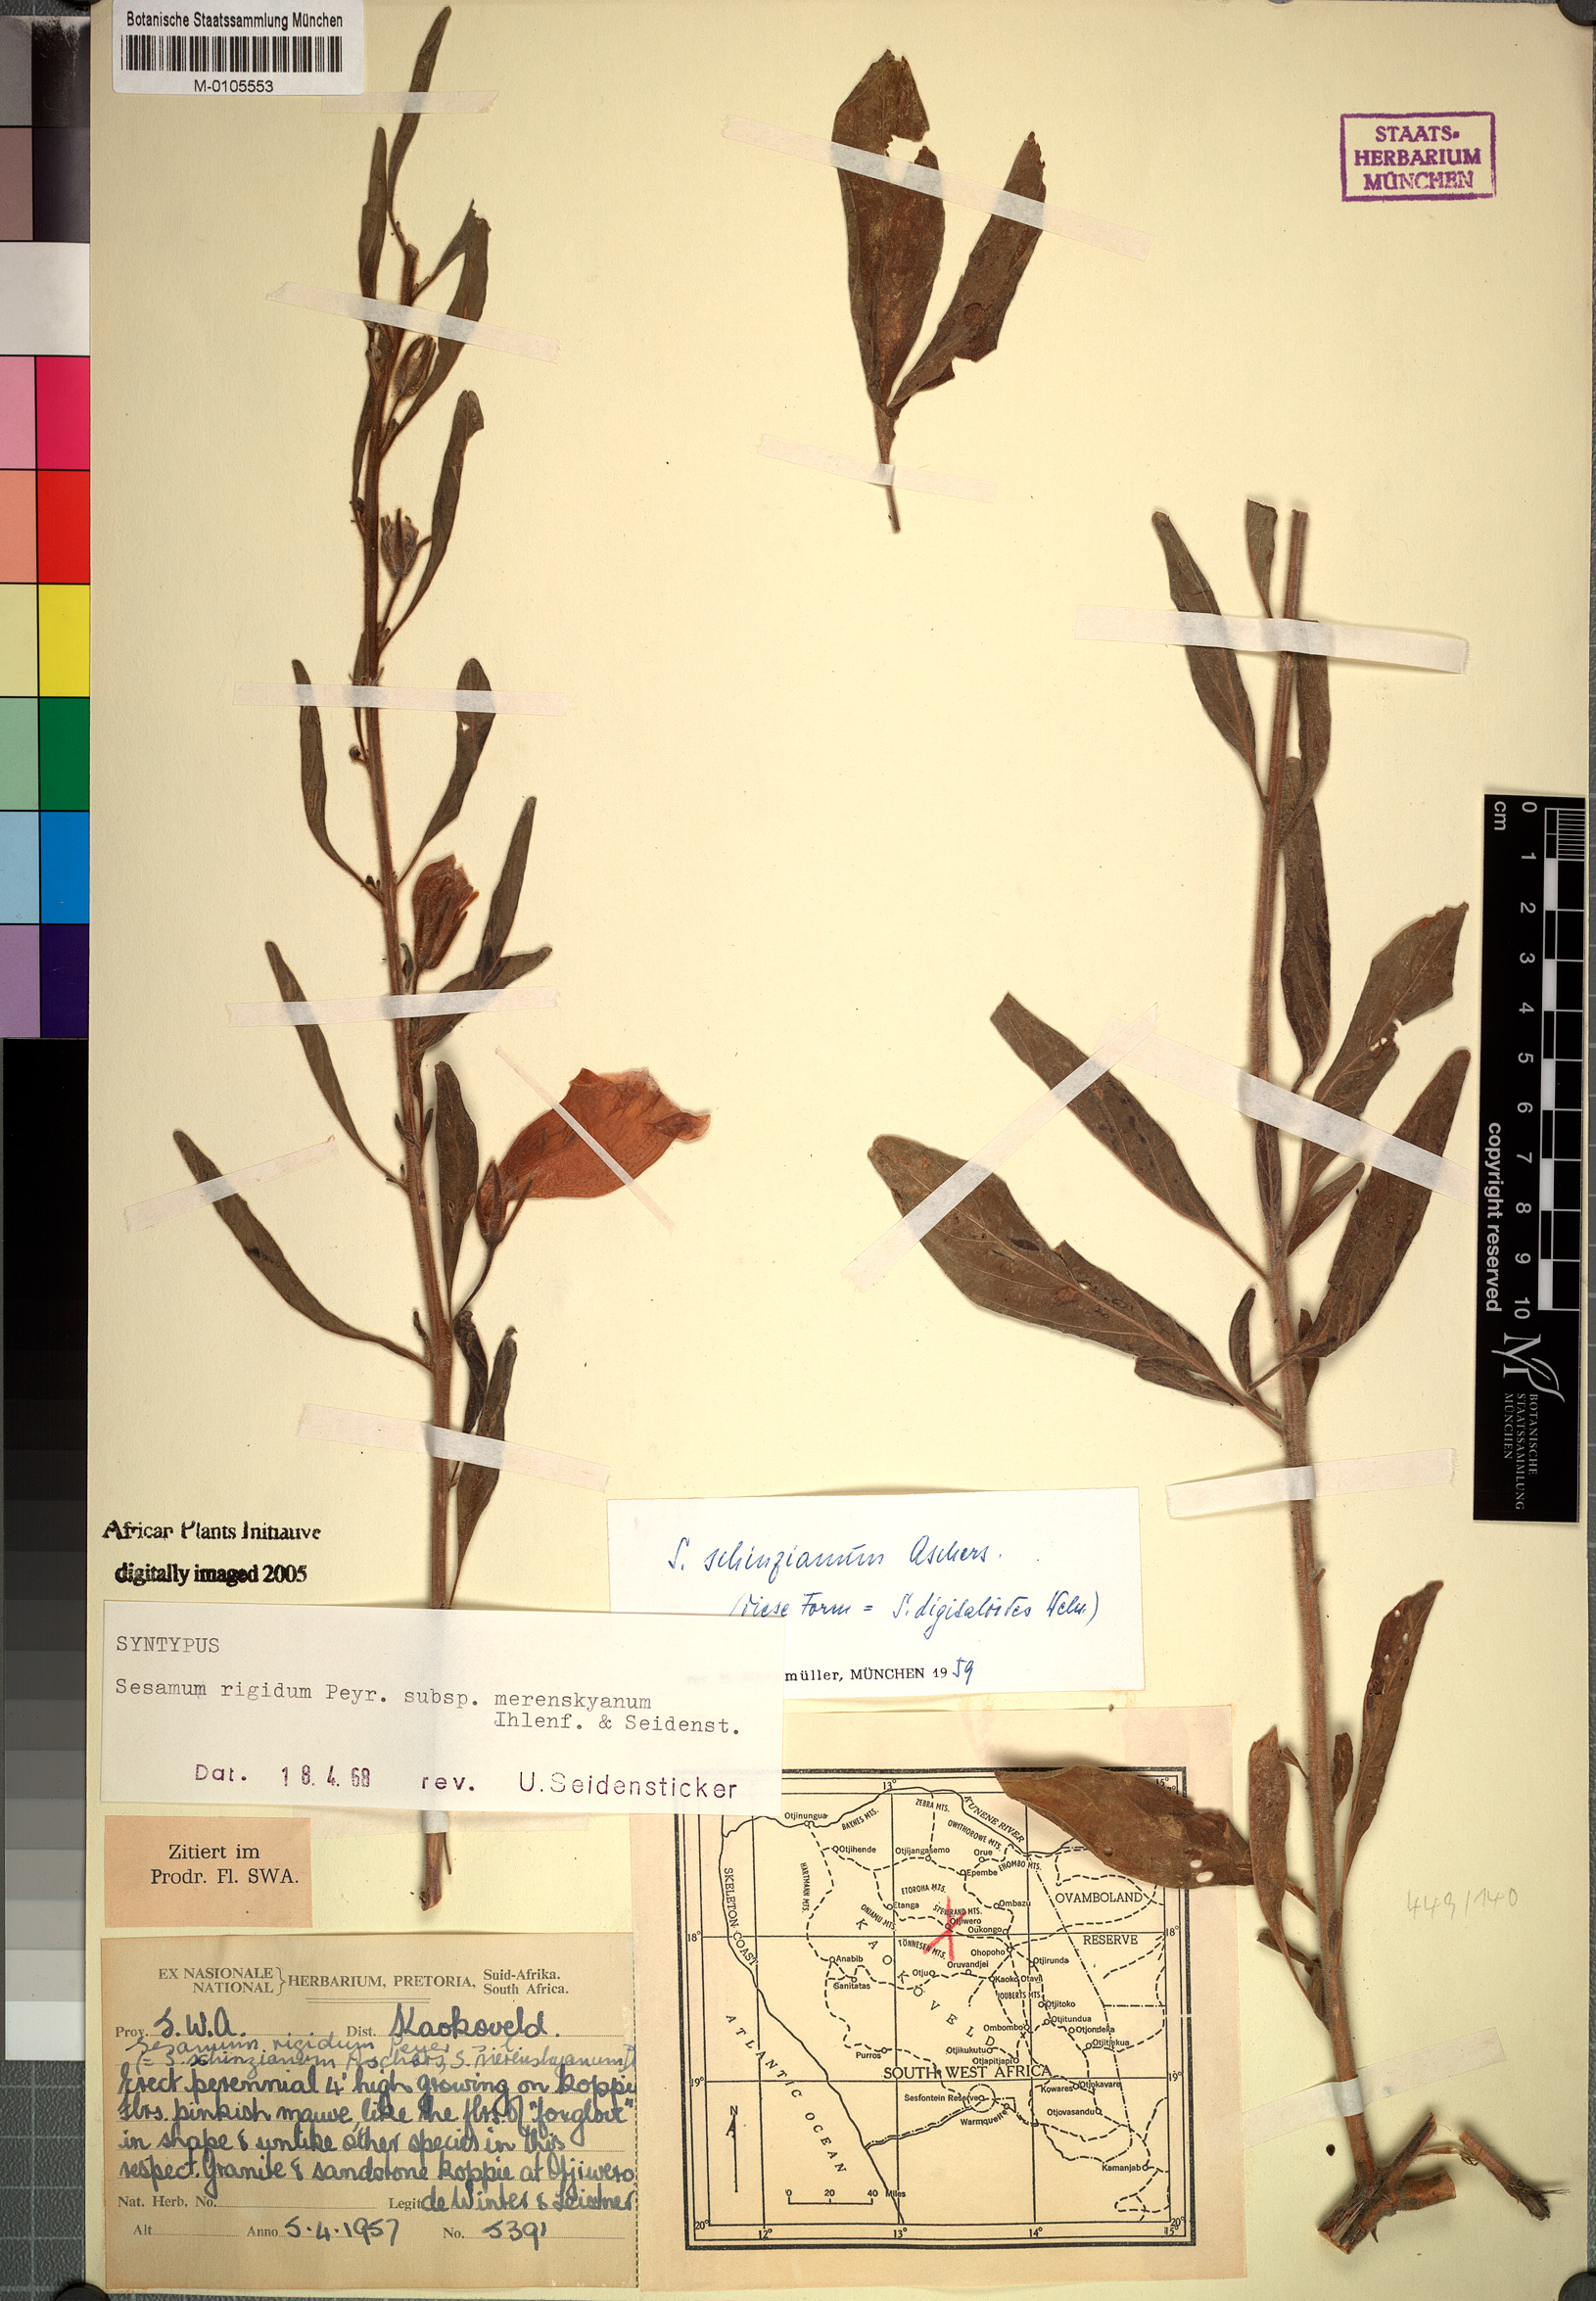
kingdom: Plantae
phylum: Tracheophyta
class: Magnoliopsida
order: Lamiales
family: Pedaliaceae
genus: Sesamum
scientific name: Sesamum rigidum
